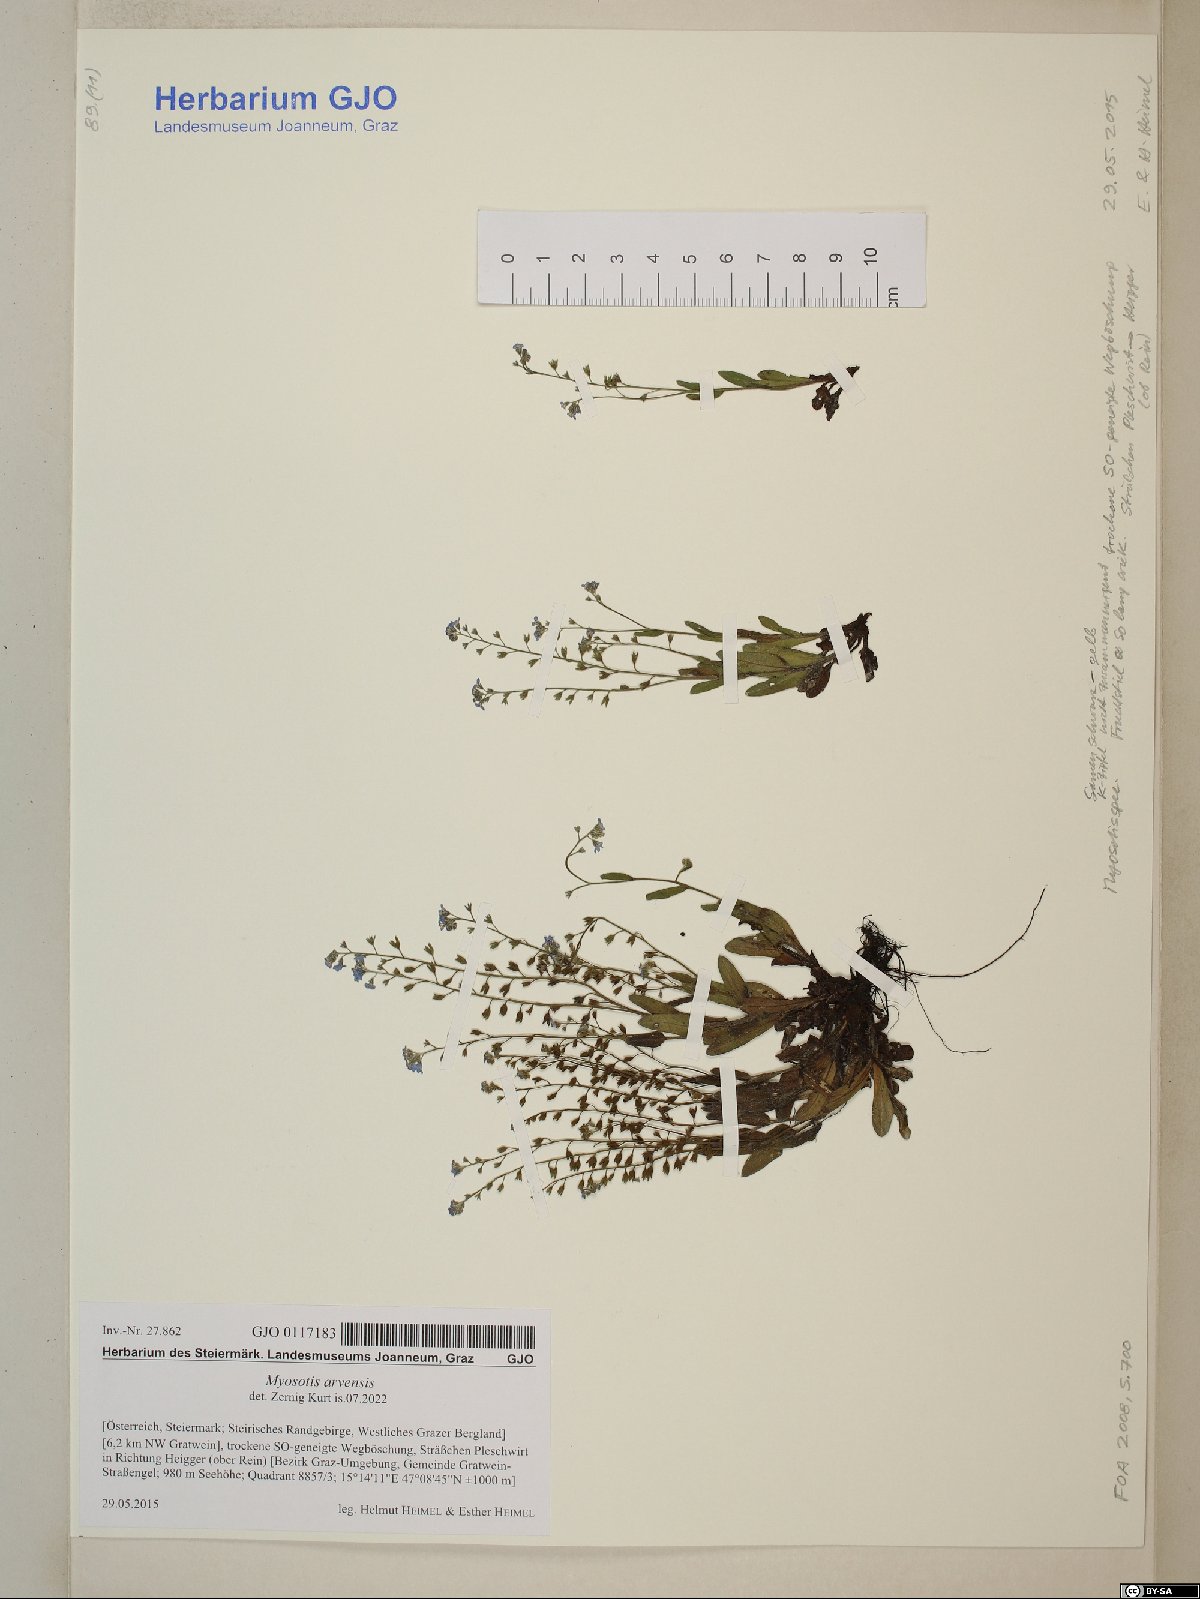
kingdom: Plantae
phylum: Tracheophyta
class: Magnoliopsida
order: Boraginales
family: Boraginaceae
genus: Myosotis
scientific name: Myosotis arvensis
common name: Field forget-me-not
